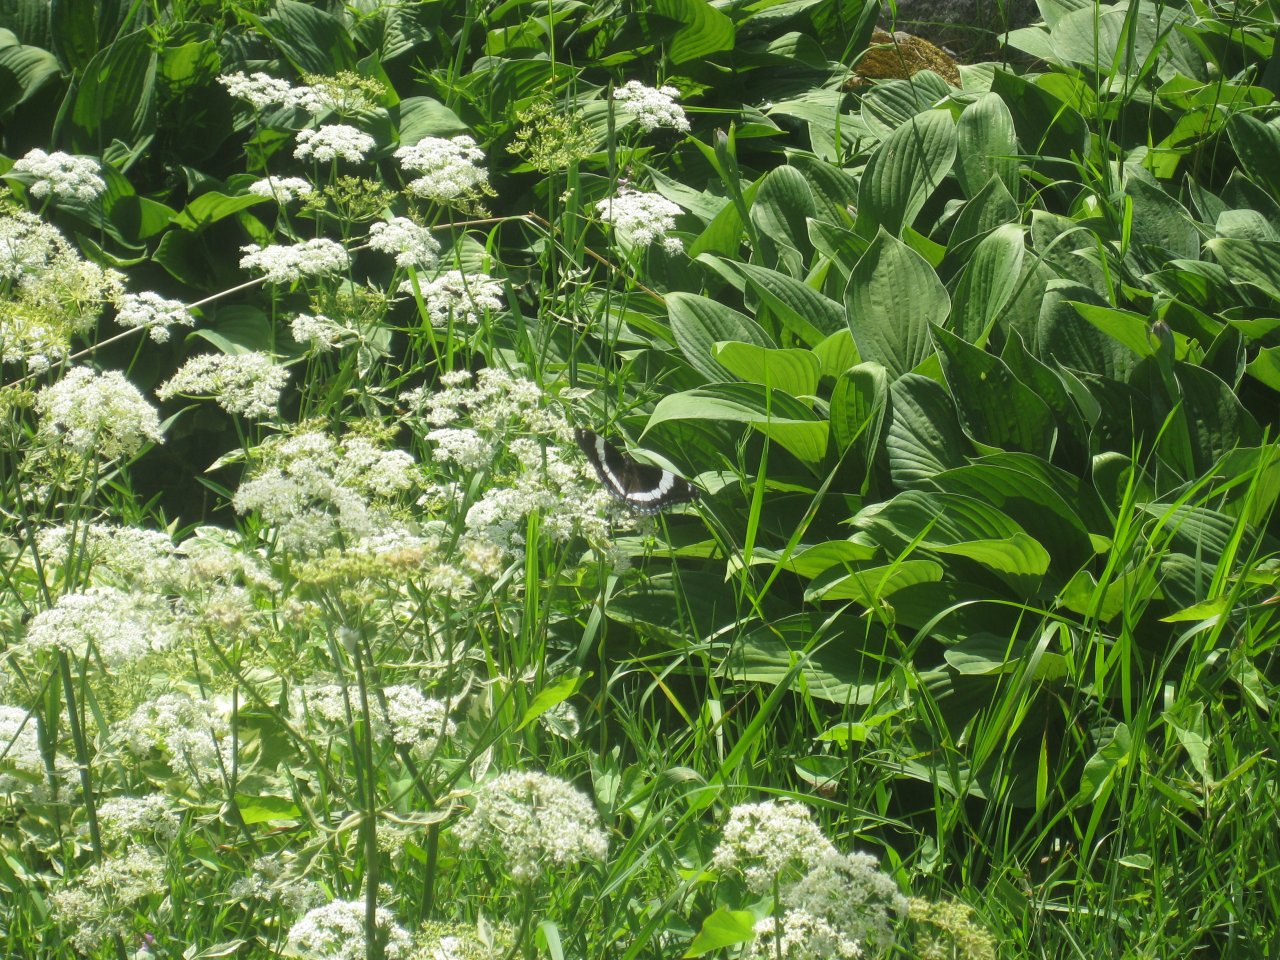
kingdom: Animalia
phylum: Arthropoda
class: Insecta
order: Lepidoptera
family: Nymphalidae
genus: Limenitis
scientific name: Limenitis arthemis
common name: Red-spotted Admiral
